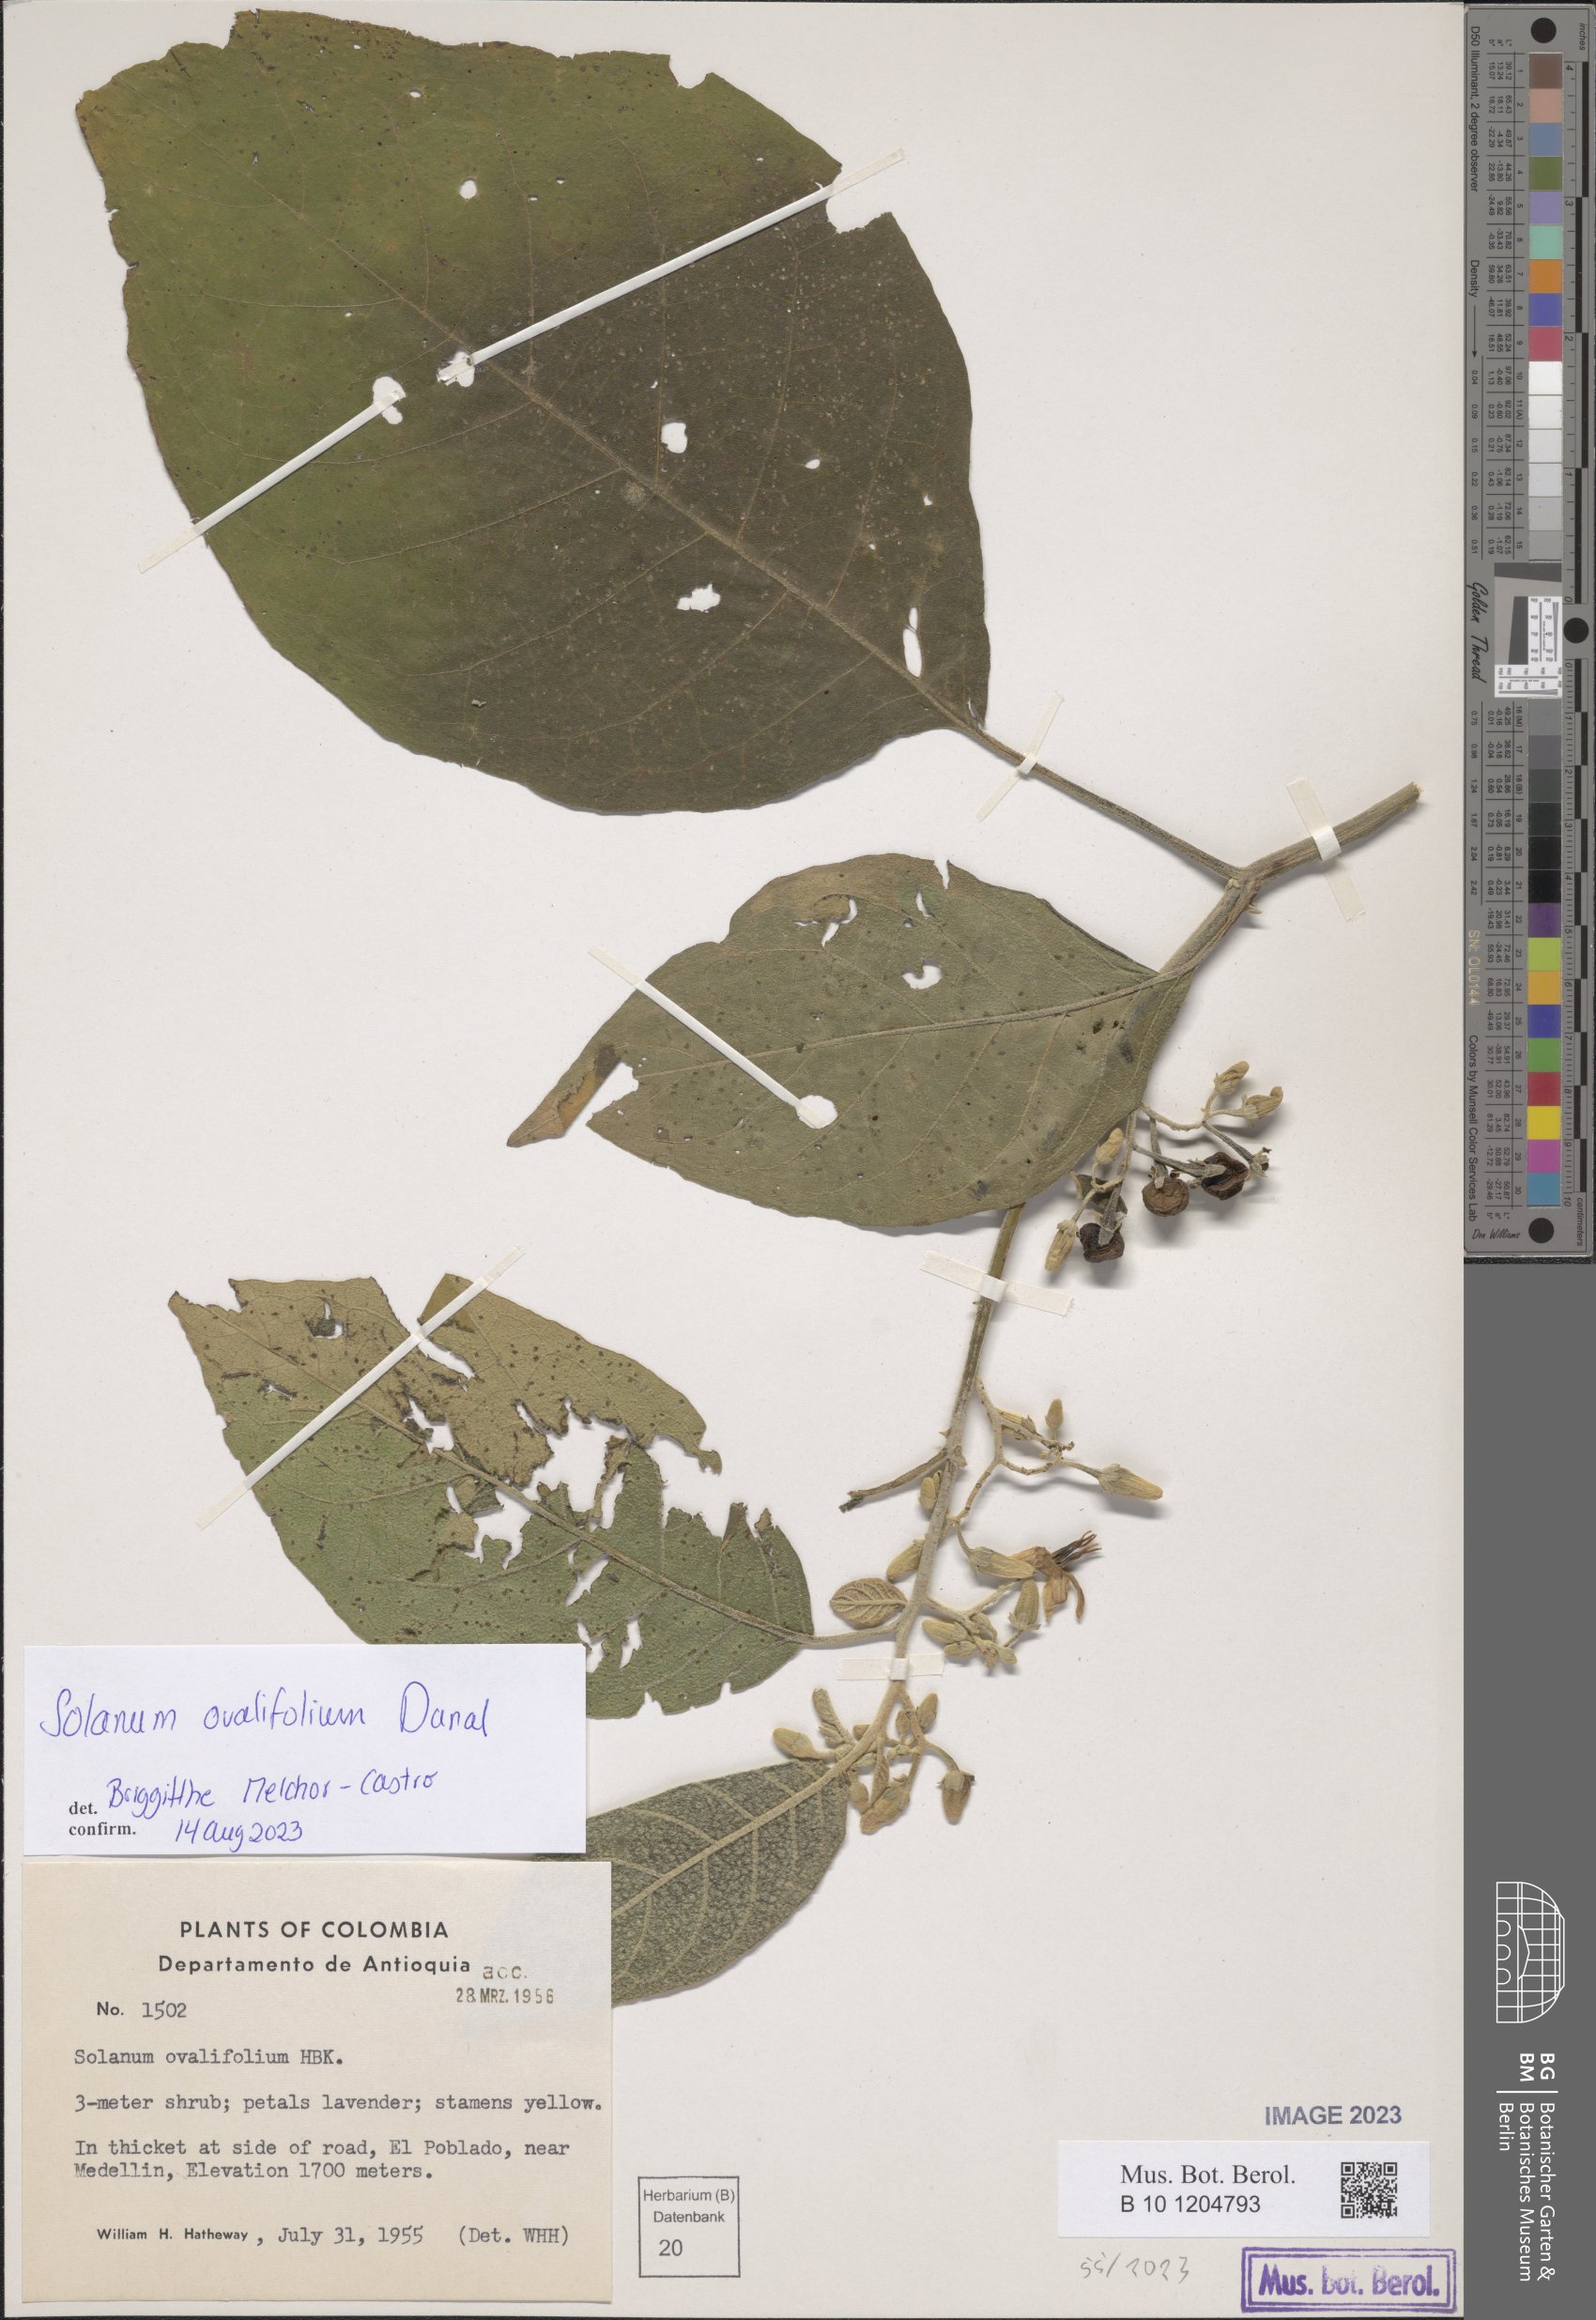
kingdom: Plantae
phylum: Tracheophyta
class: Magnoliopsida
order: Solanales
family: Solanaceae
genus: Solanum
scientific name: Solanum ovalifolium
